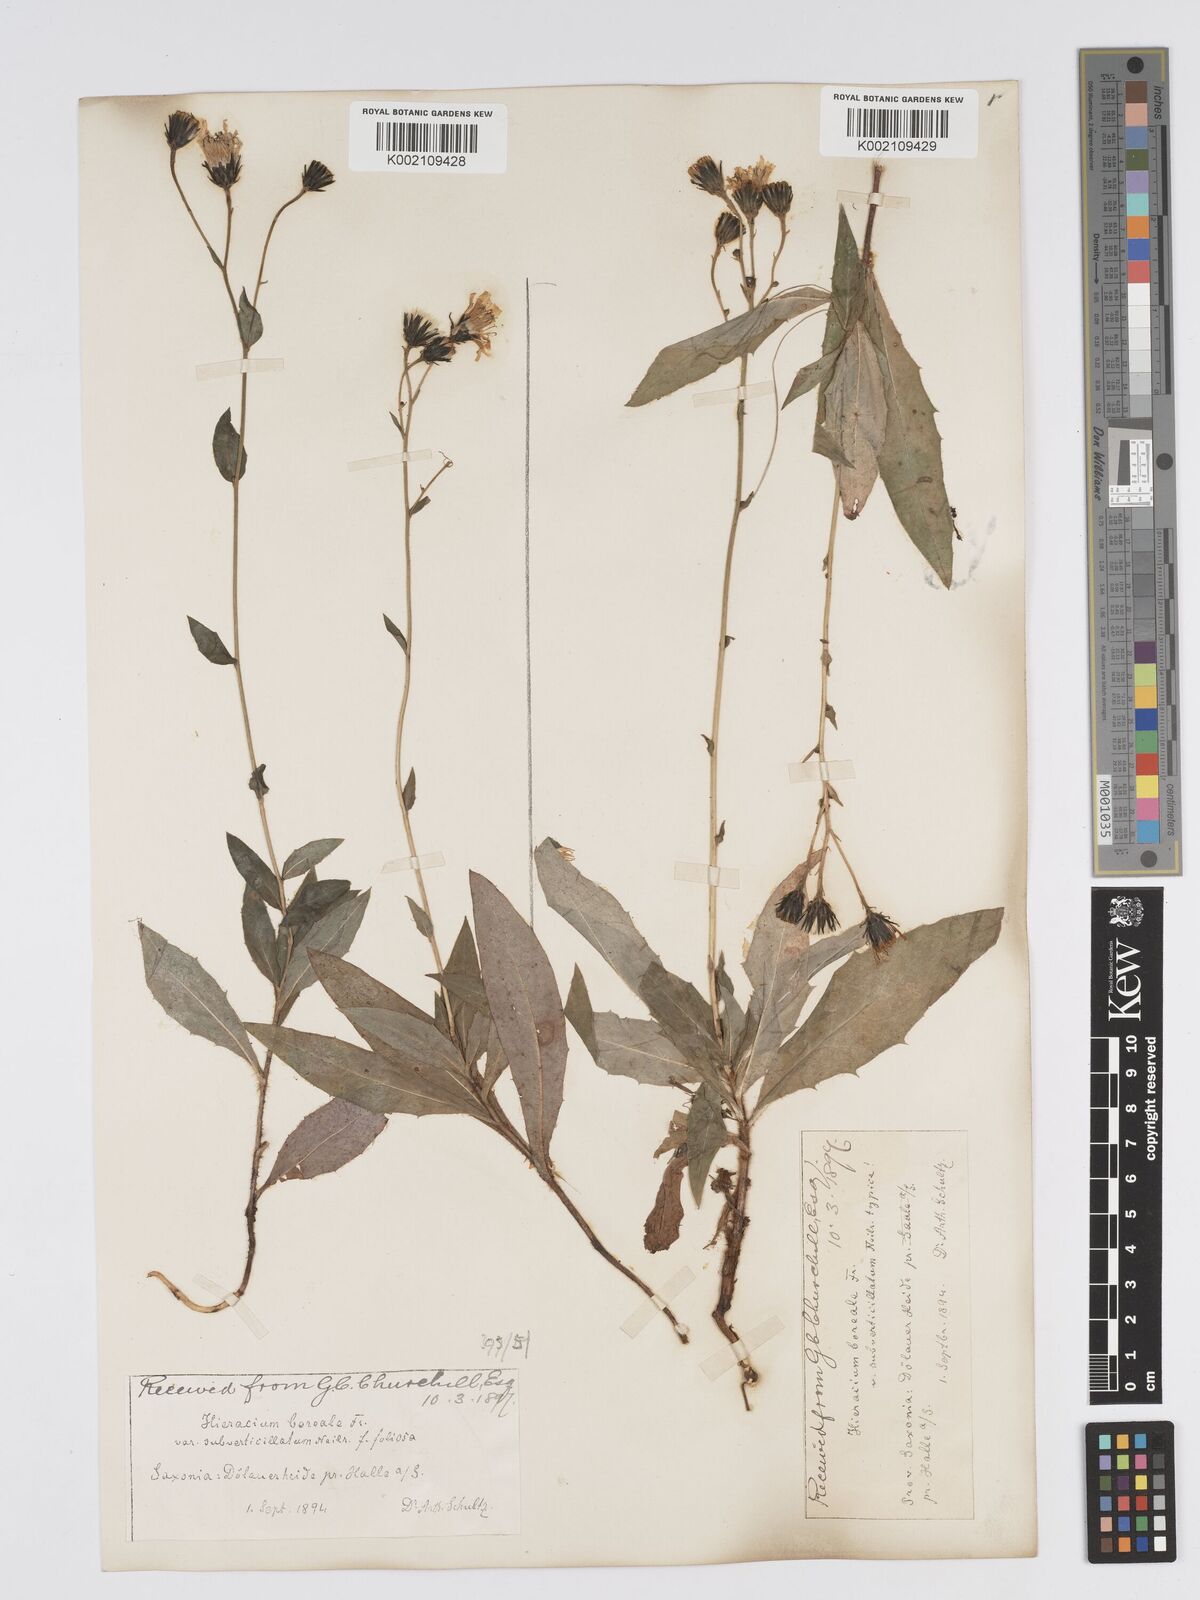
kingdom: Plantae
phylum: Tracheophyta
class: Magnoliopsida
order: Asterales
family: Asteraceae
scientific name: Asteraceae
